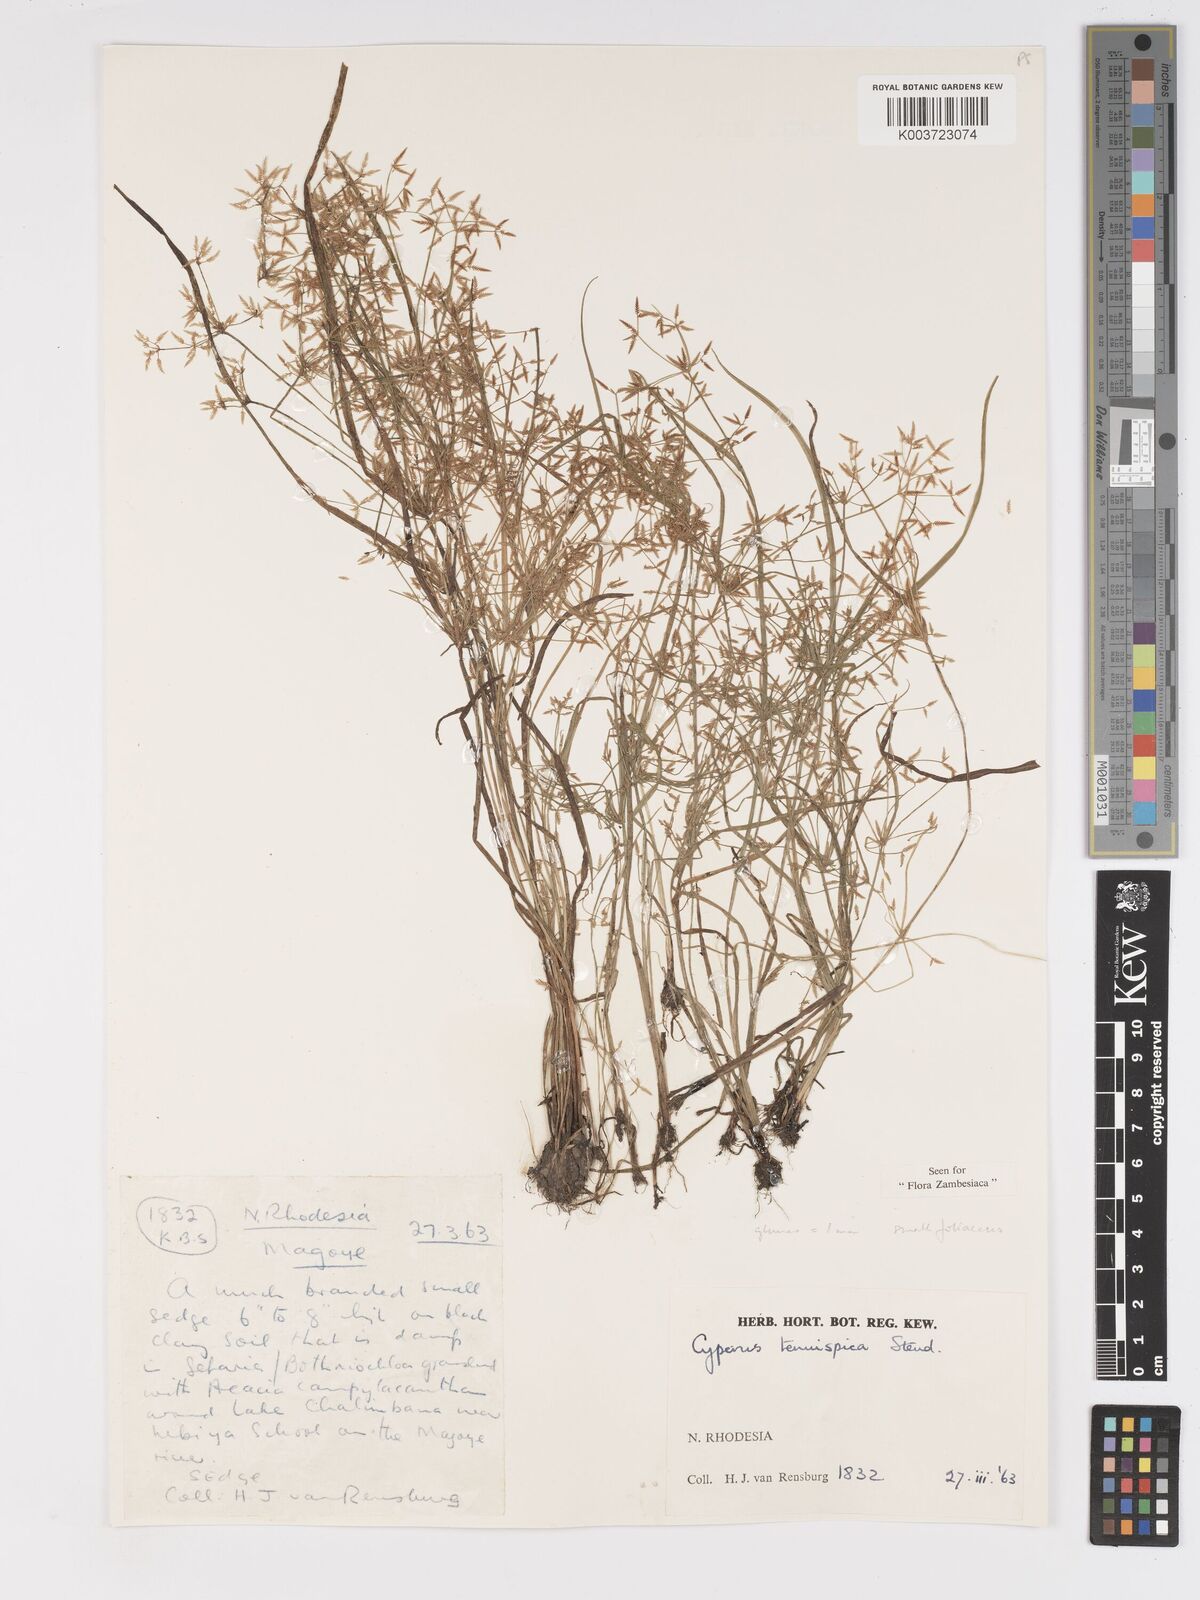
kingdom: Plantae
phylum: Tracheophyta
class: Liliopsida
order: Poales
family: Cyperaceae
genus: Cyperus
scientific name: Cyperus tenuispica
